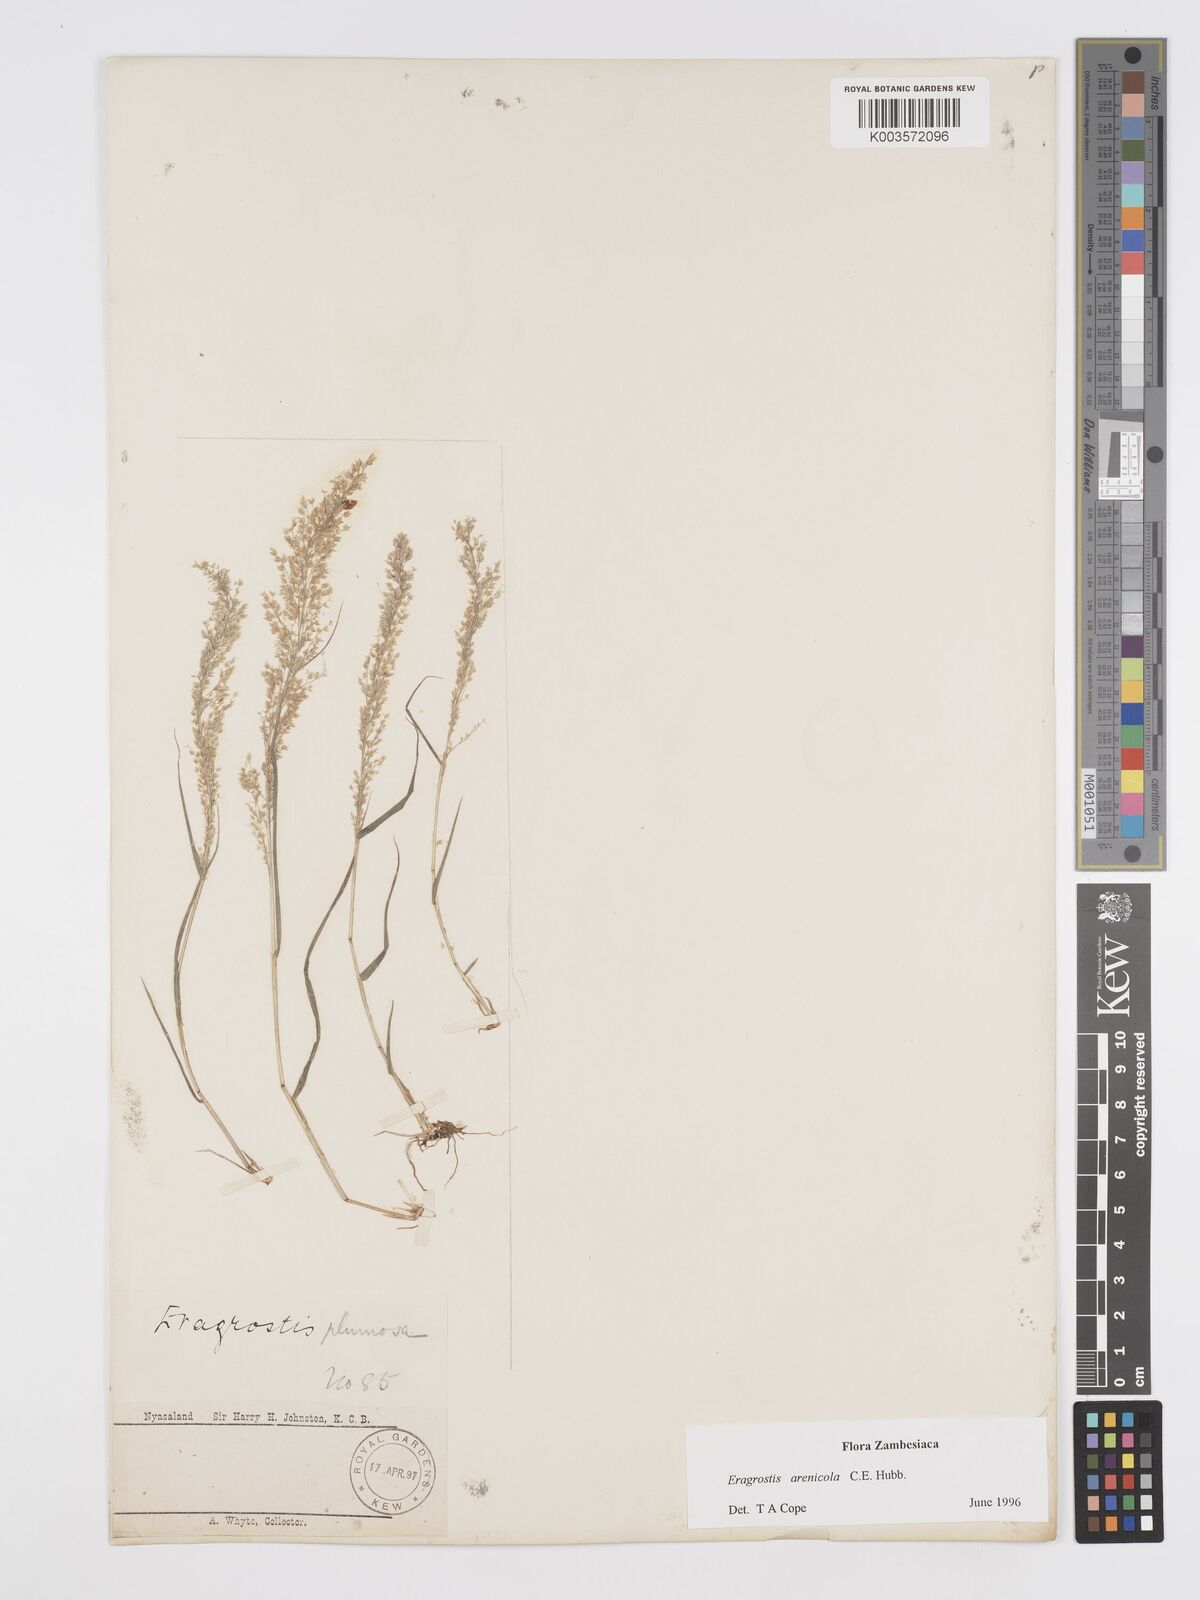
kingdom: Plantae
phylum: Tracheophyta
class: Liliopsida
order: Poales
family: Poaceae
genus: Eragrostis
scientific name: Eragrostis arenicola
